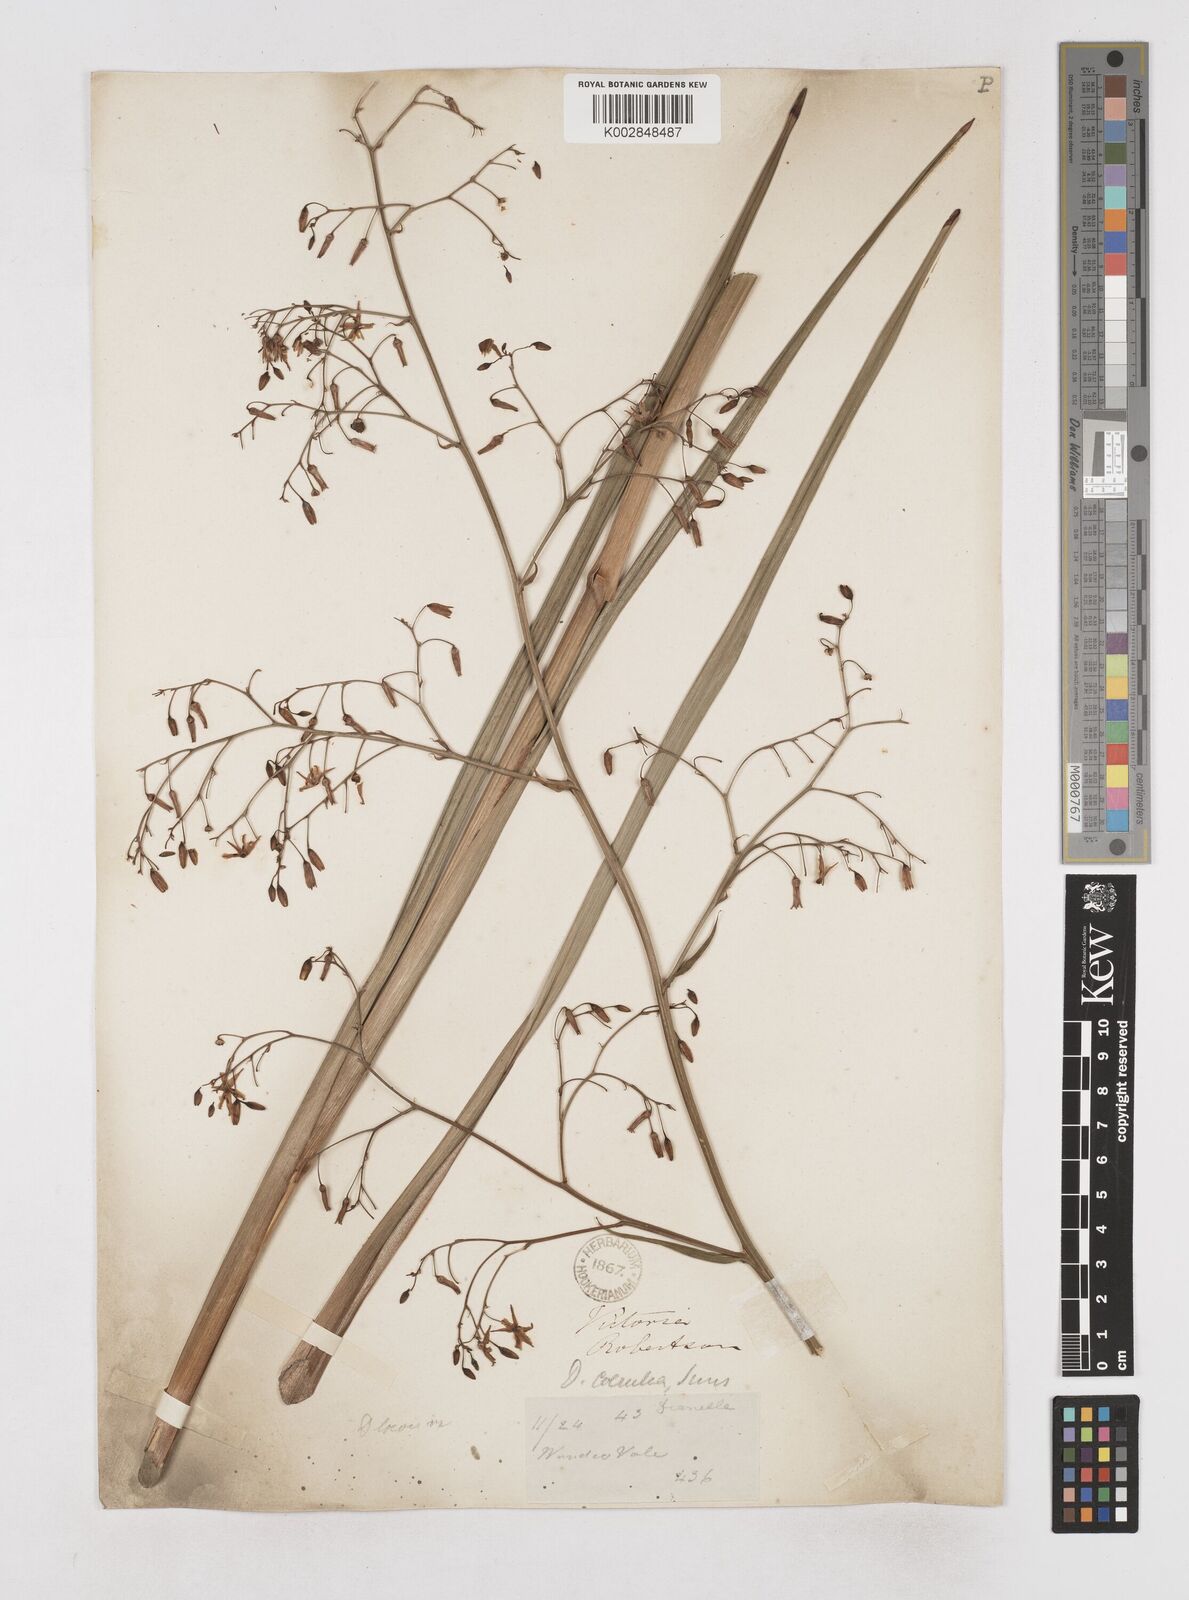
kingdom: Plantae
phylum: Tracheophyta
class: Liliopsida
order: Asparagales
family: Asphodelaceae
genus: Dianella
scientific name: Dianella longifolia
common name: Blue flax-lily
